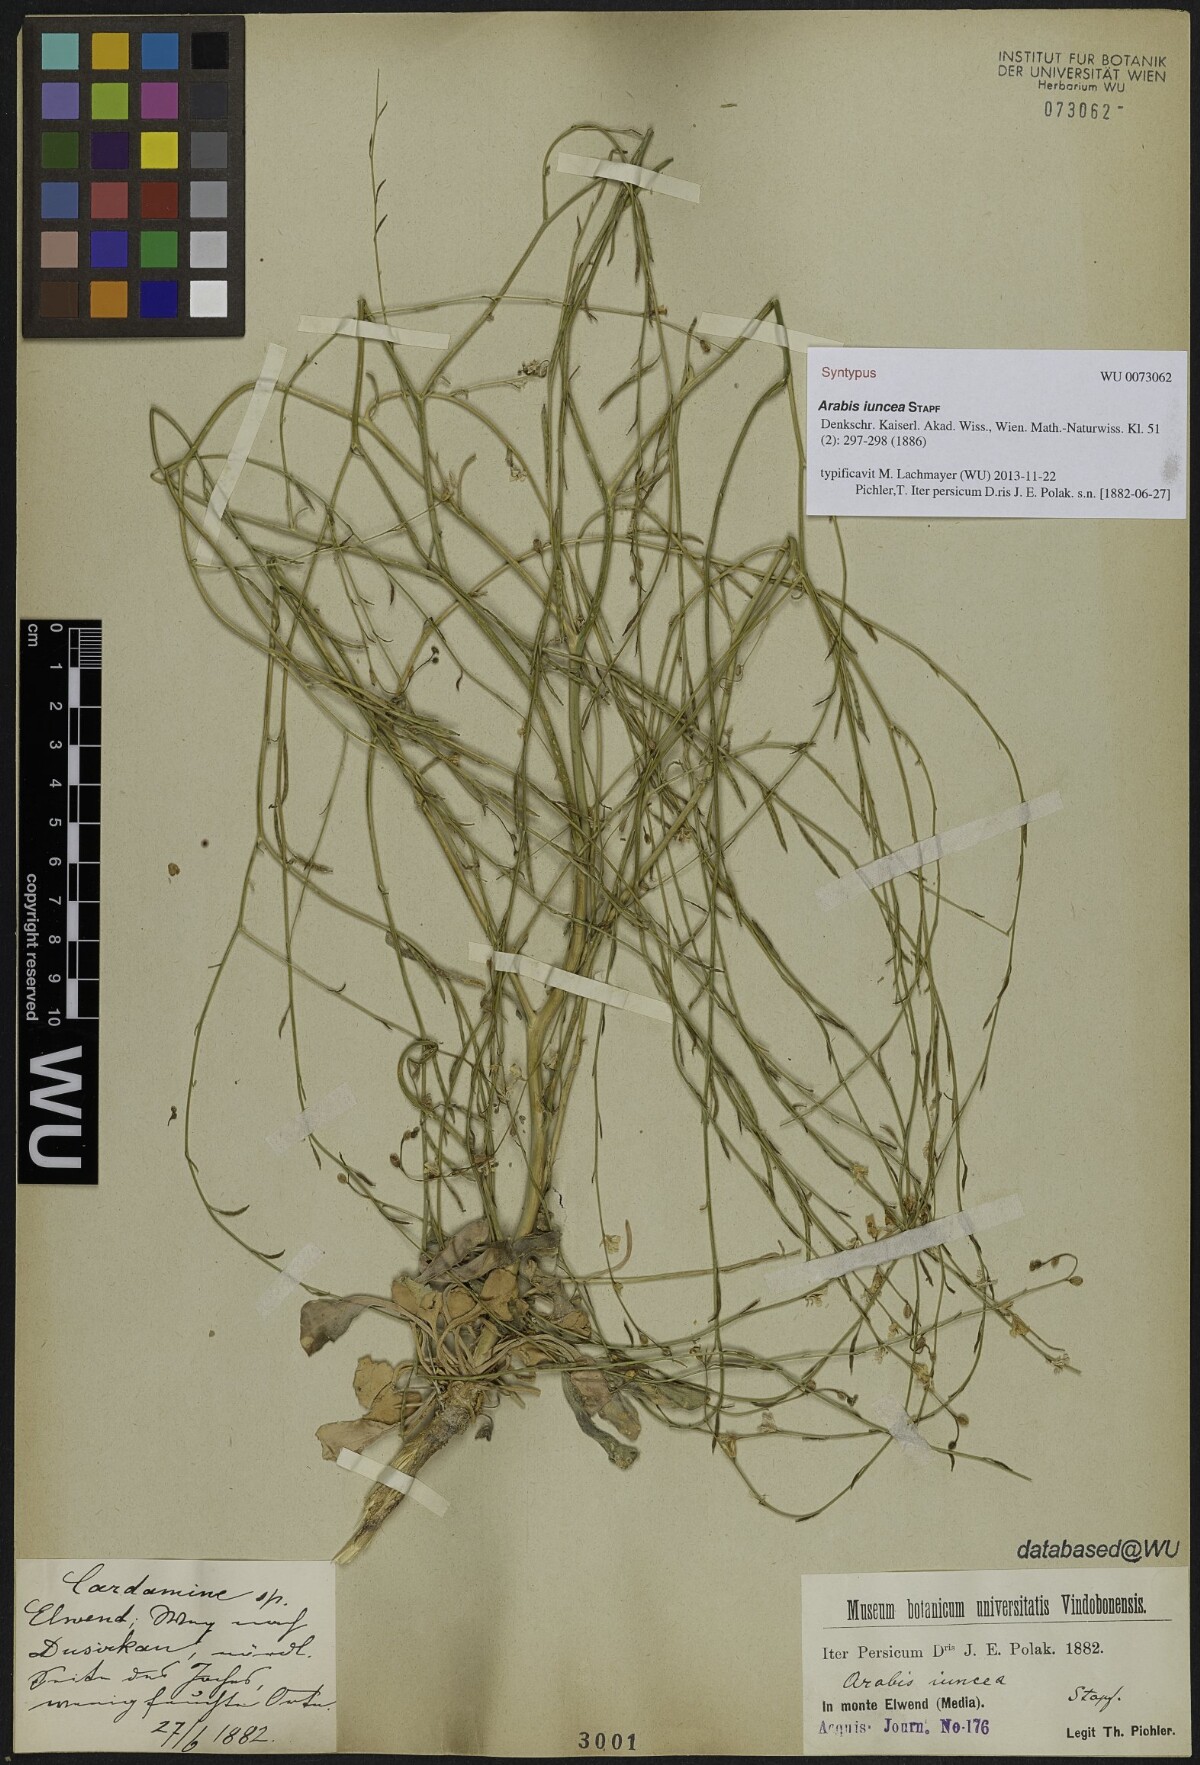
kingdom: Plantae
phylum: Tracheophyta
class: Magnoliopsida
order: Brassicales
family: Brassicaceae
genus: Arabis
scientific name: Arabis
